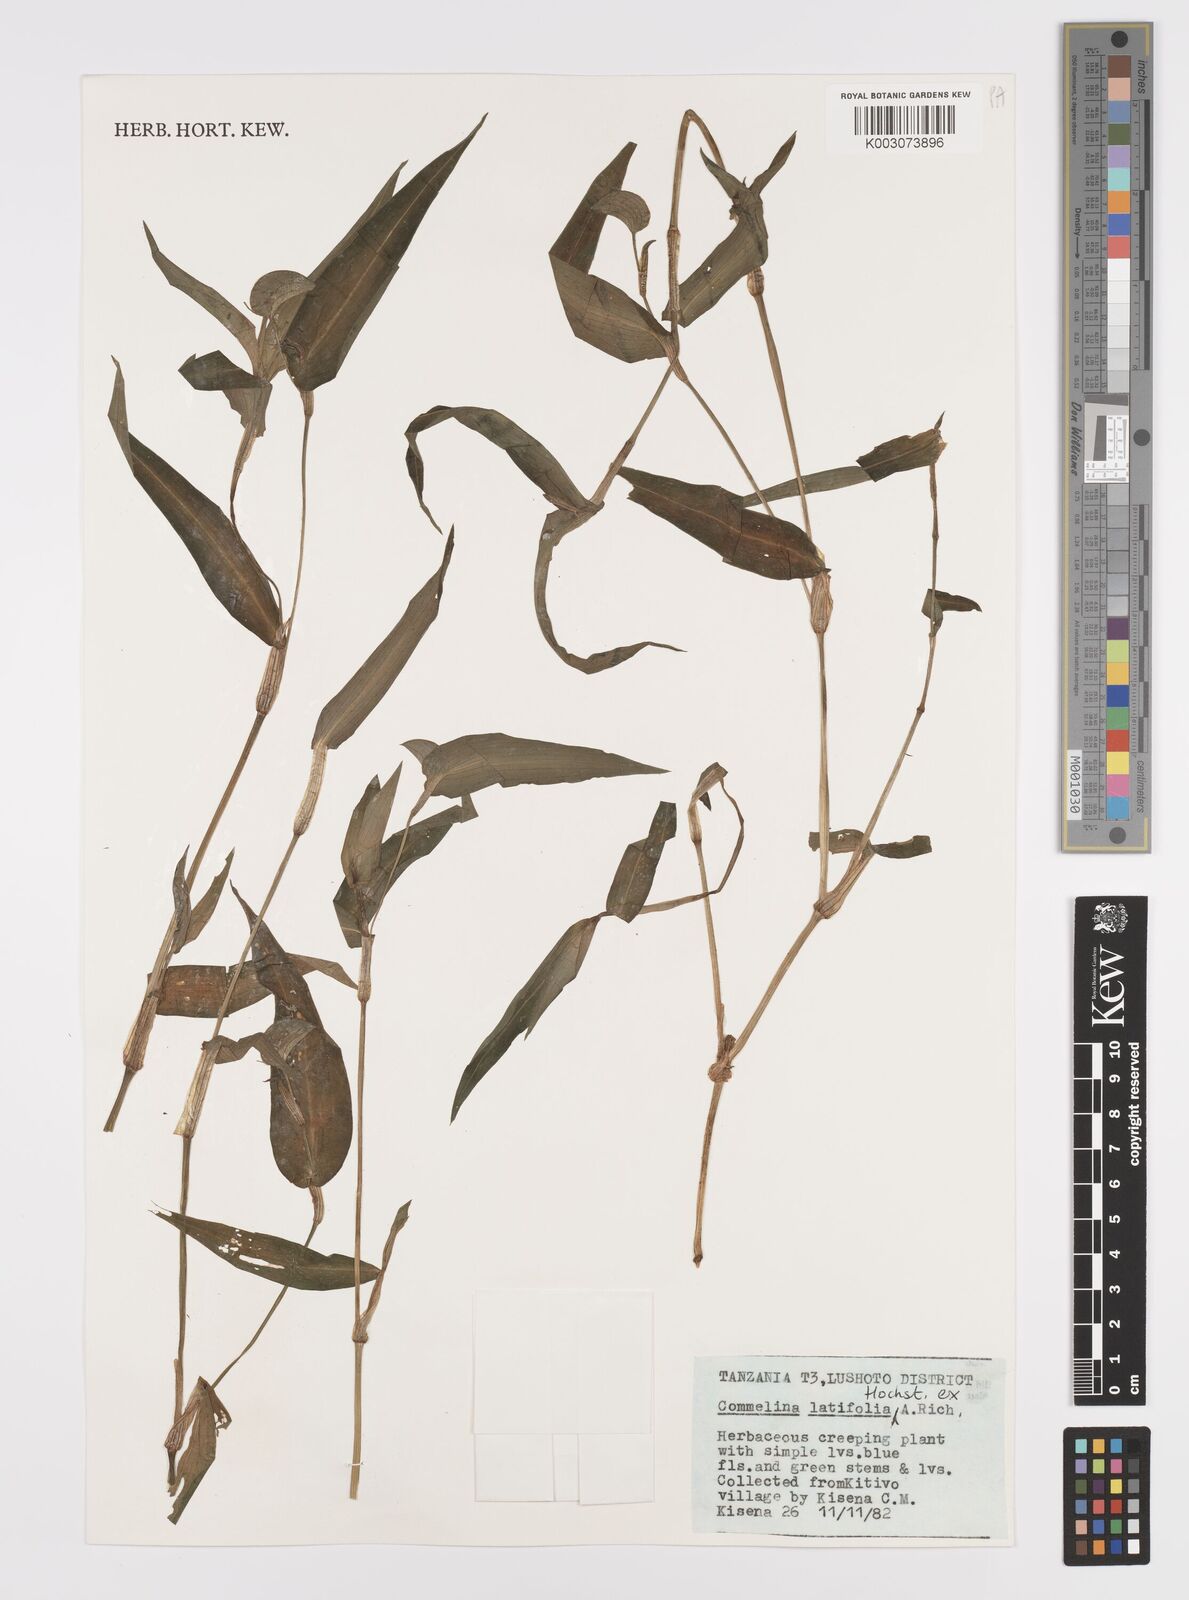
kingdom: Plantae
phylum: Tracheophyta
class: Liliopsida
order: Commelinales
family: Commelinaceae
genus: Commelina
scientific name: Commelina latifolia
